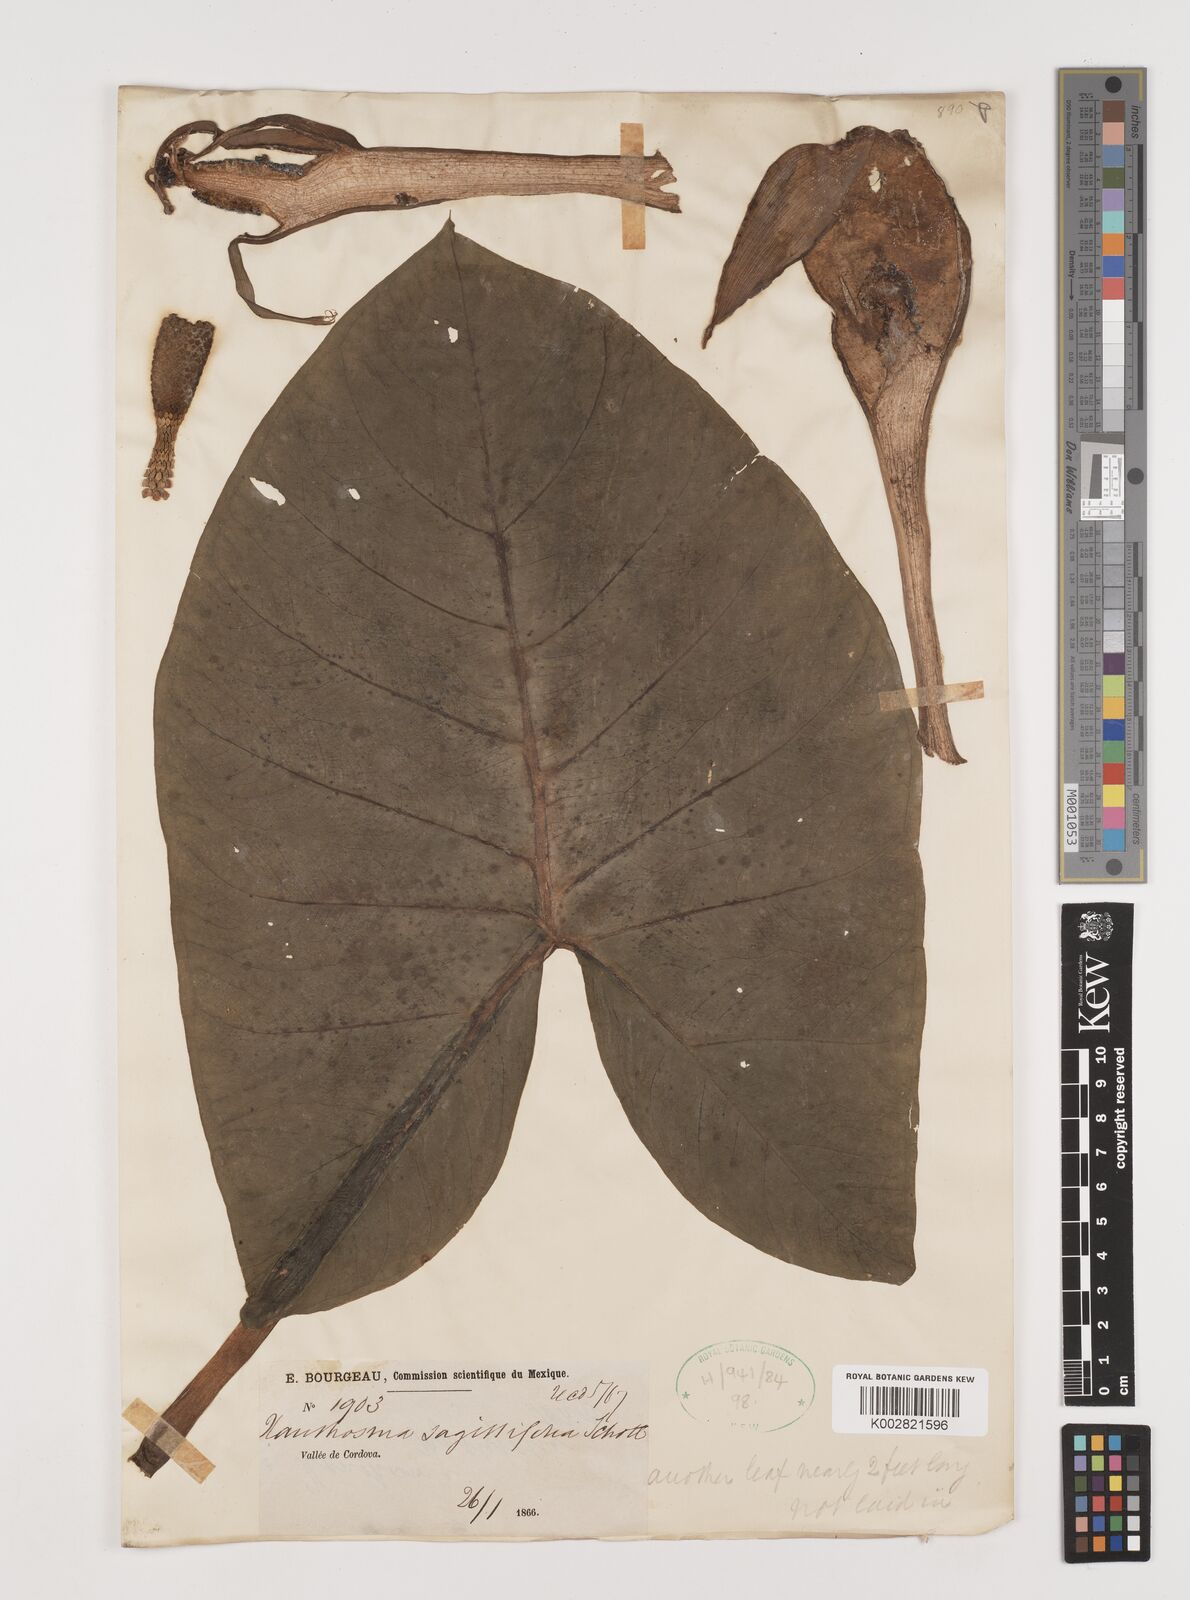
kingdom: Plantae
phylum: Tracheophyta
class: Liliopsida
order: Alismatales
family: Araceae
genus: Xanthosoma
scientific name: Xanthosoma sagittifolium
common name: Arrowleaf elephant's ear
